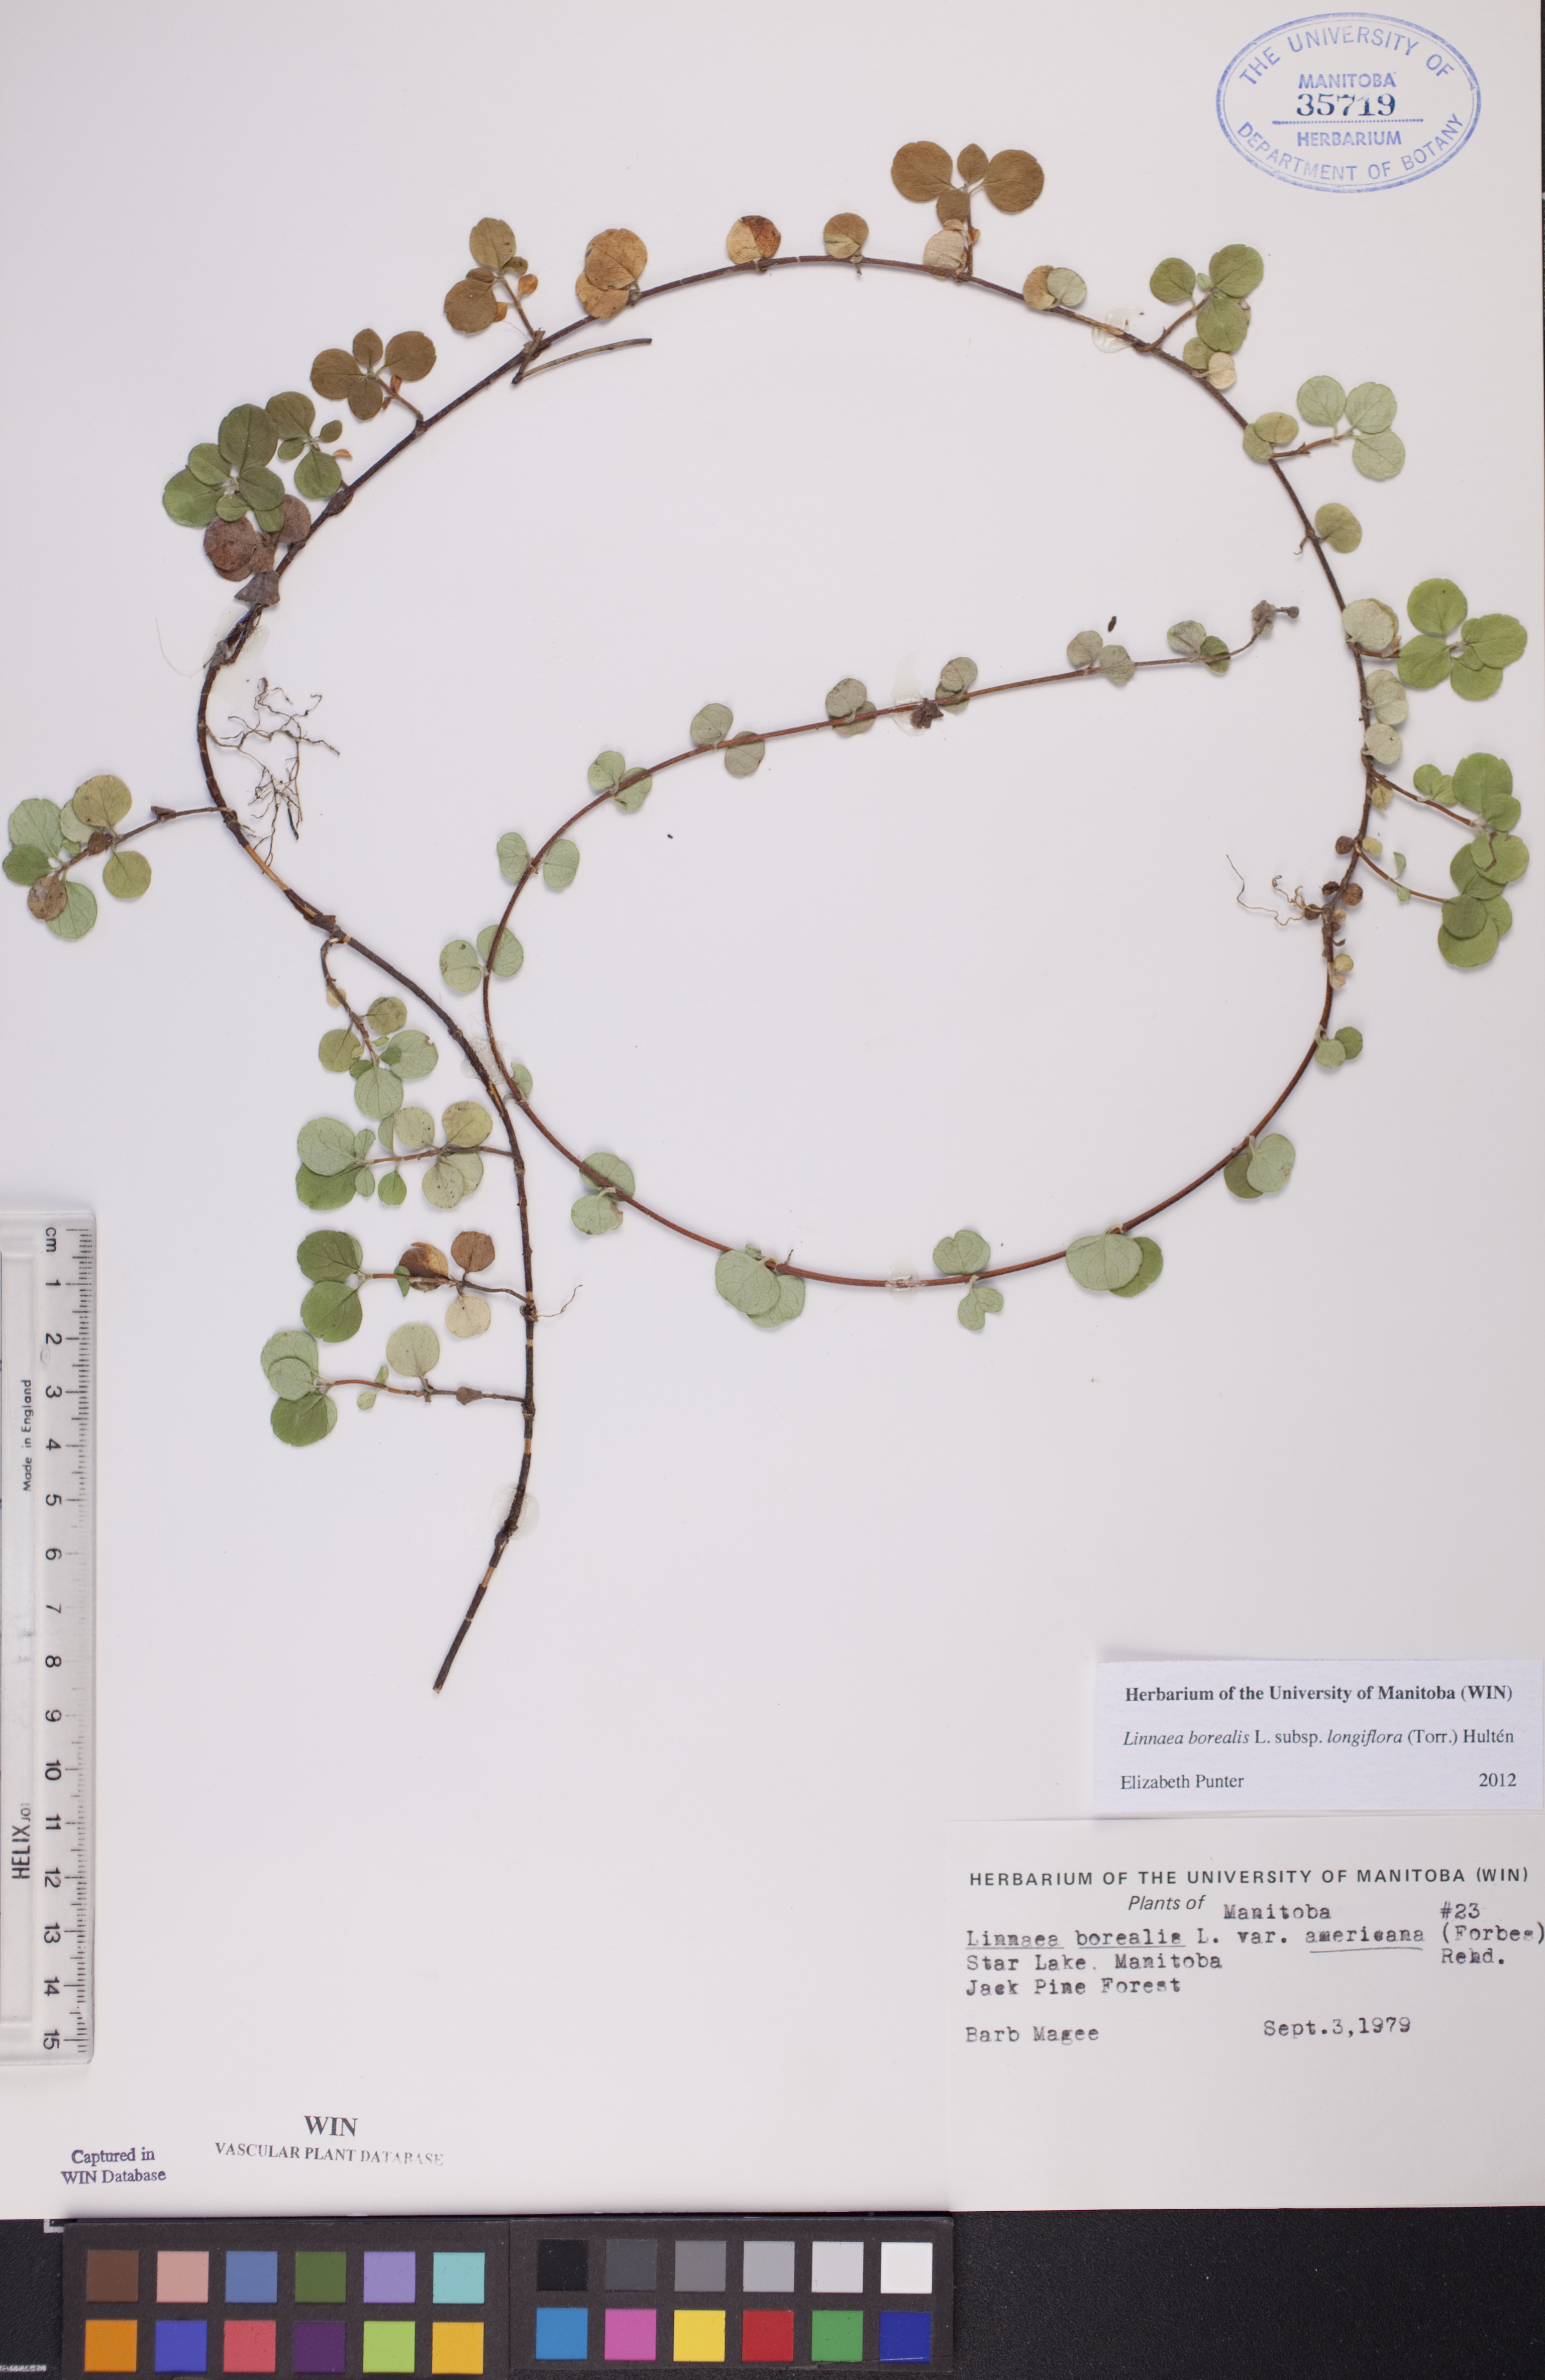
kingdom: Plantae
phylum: Tracheophyta
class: Magnoliopsida
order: Dipsacales
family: Caprifoliaceae
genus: Linnaea
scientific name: Linnaea borealis
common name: Twinflower
